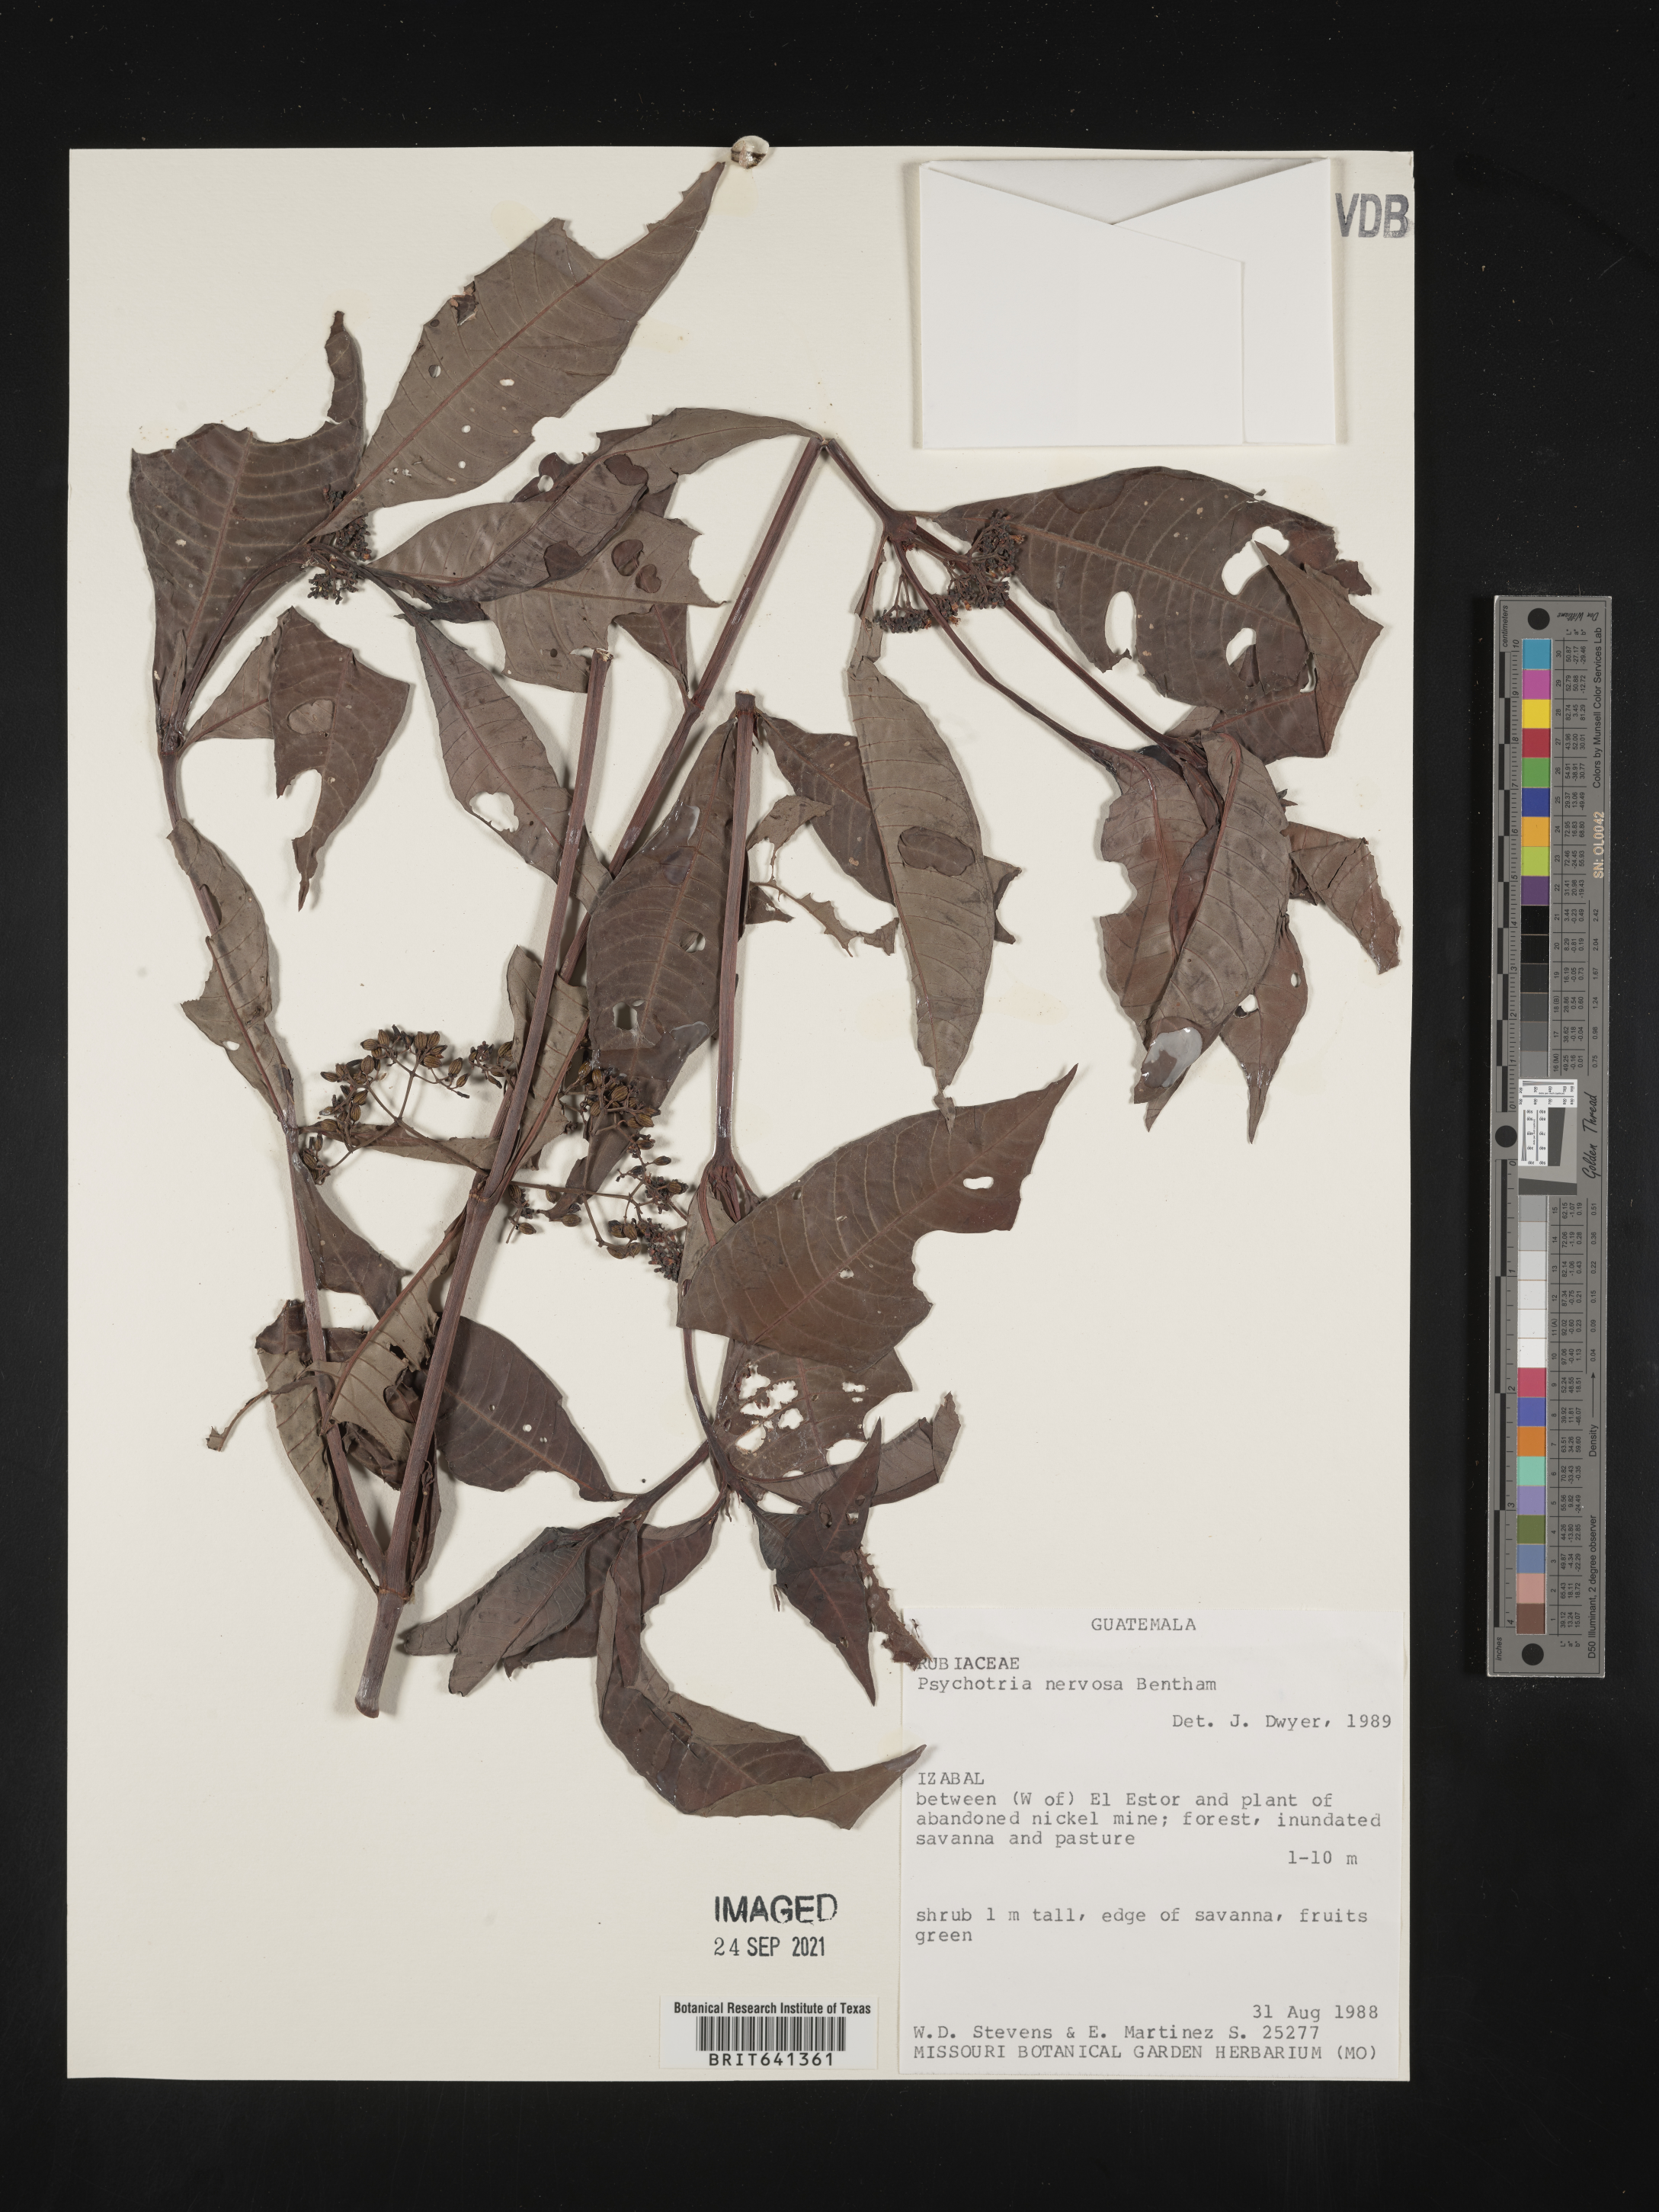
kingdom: Plantae
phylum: Tracheophyta
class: Magnoliopsida
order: Gentianales
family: Rubiaceae
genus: Psychotria
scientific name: Psychotria
